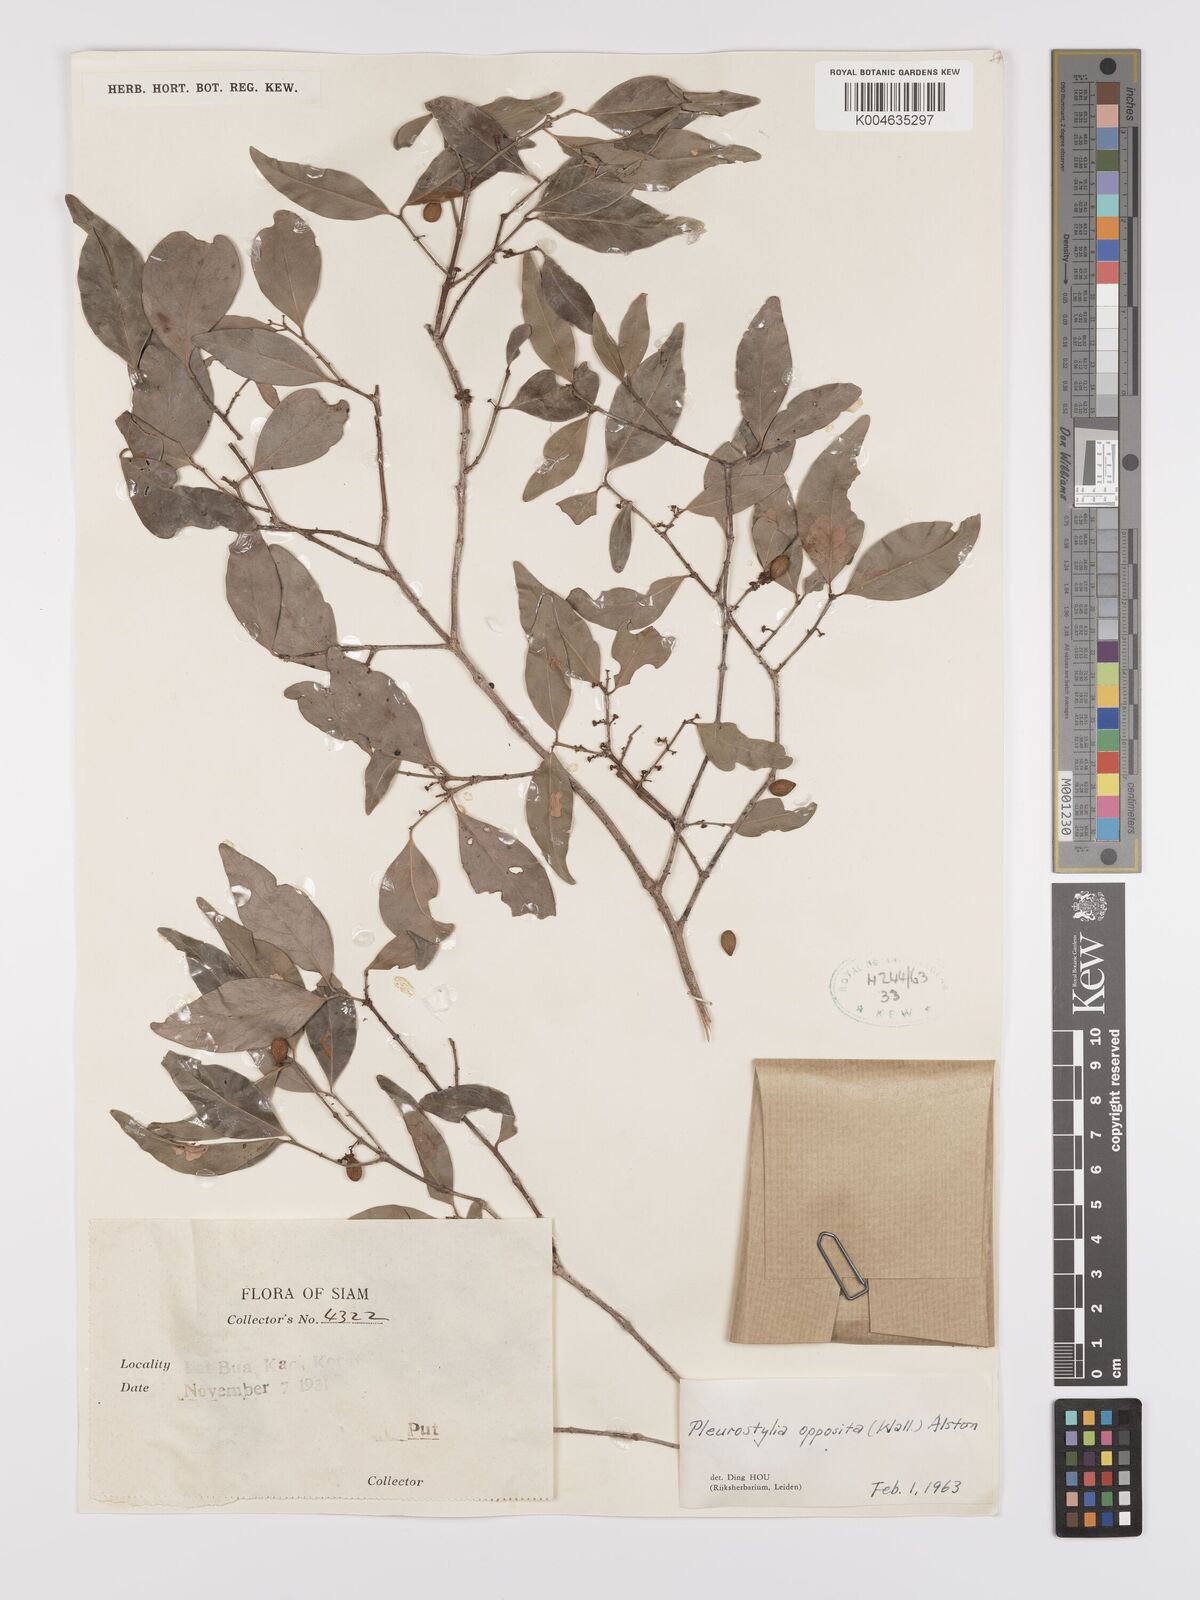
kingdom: Plantae
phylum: Tracheophyta
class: Magnoliopsida
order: Celastrales
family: Celastraceae
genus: Pleurostylia
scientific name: Pleurostylia opposita
